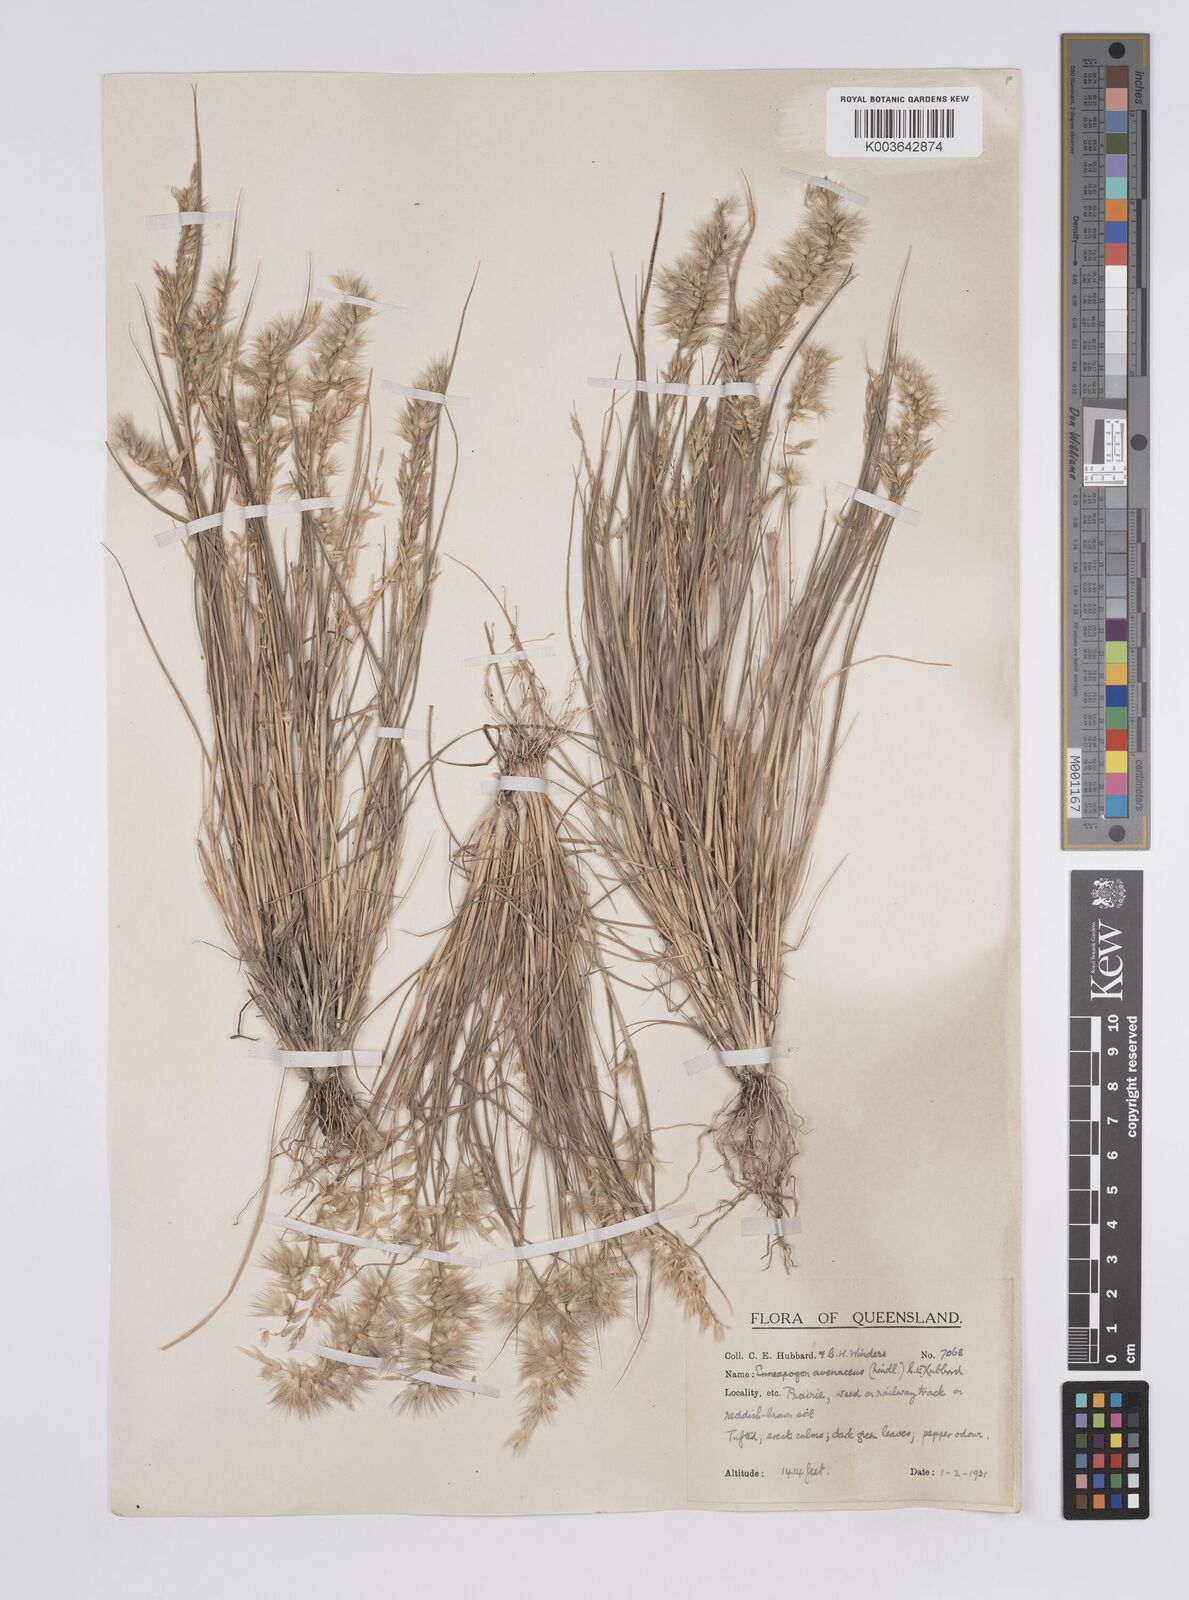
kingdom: Plantae
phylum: Tracheophyta
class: Liliopsida
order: Poales
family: Poaceae
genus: Enneapogon
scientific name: Enneapogon avenaceus
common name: Hairy oat grass
